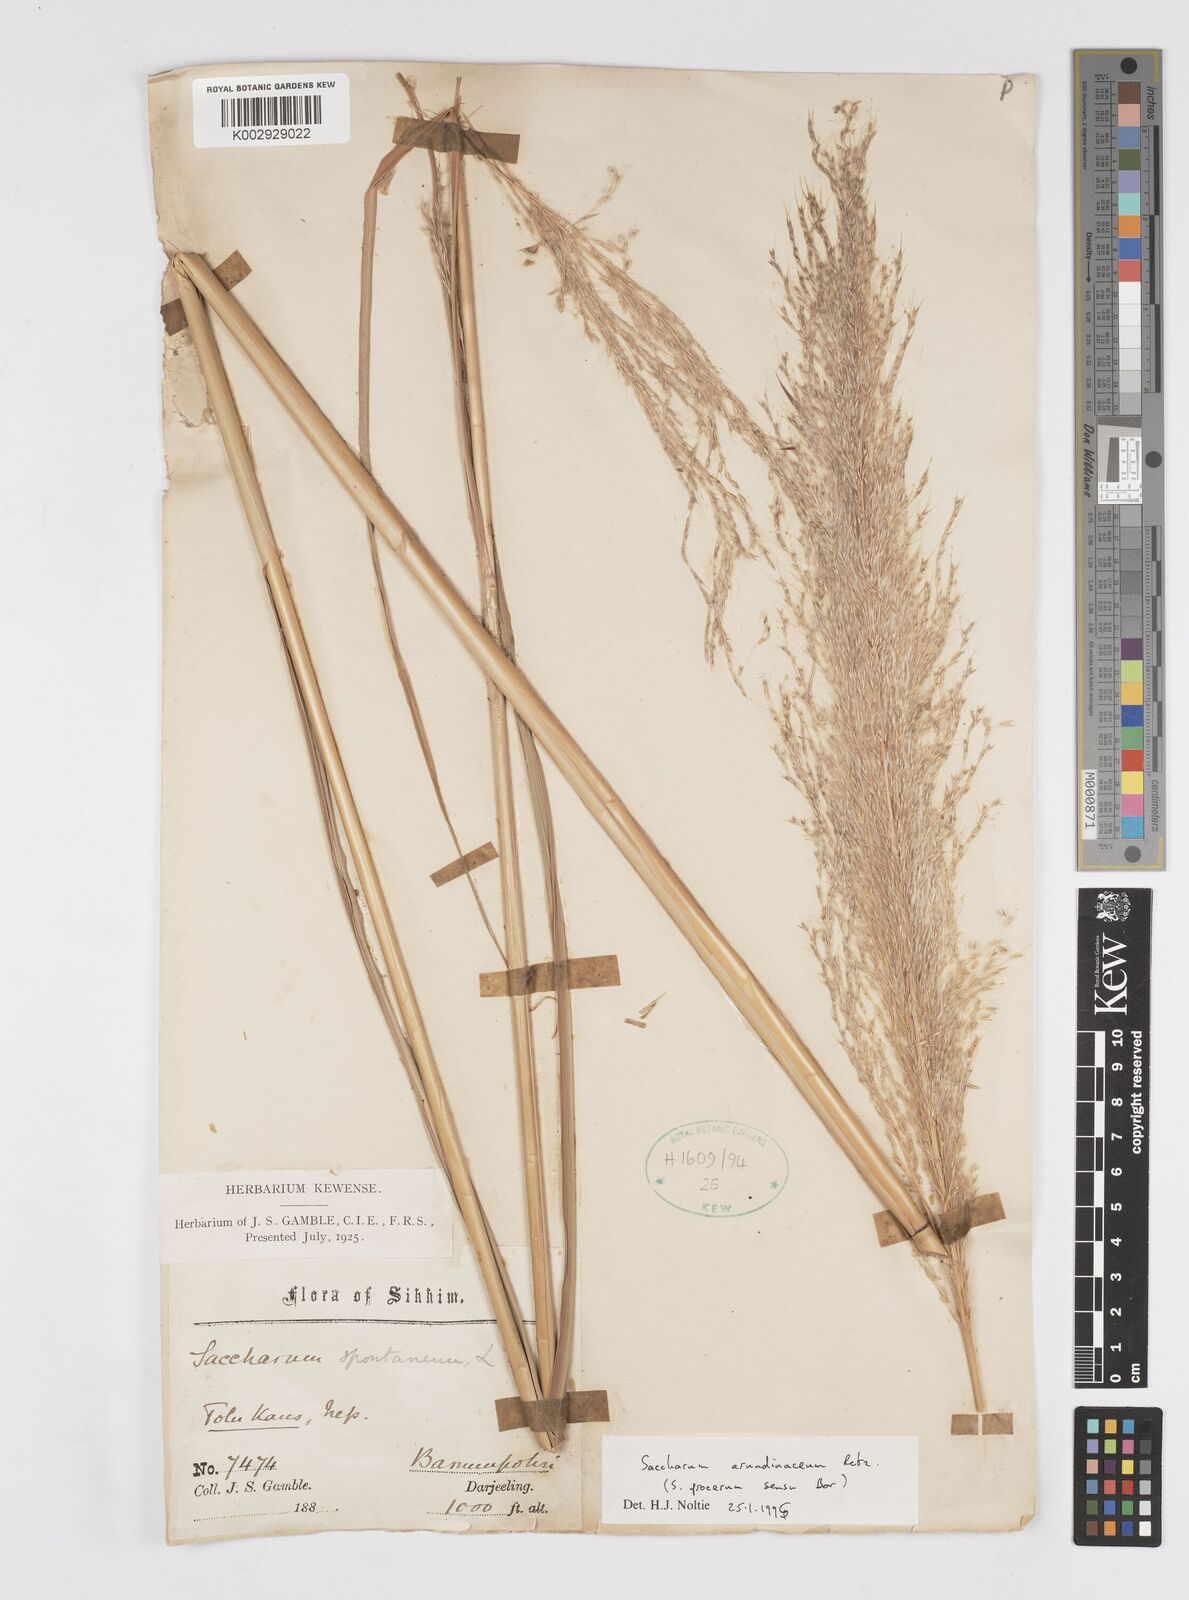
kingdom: Plantae
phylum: Tracheophyta
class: Liliopsida
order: Poales
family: Poaceae
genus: Tripidium
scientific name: Tripidium arundinaceum
